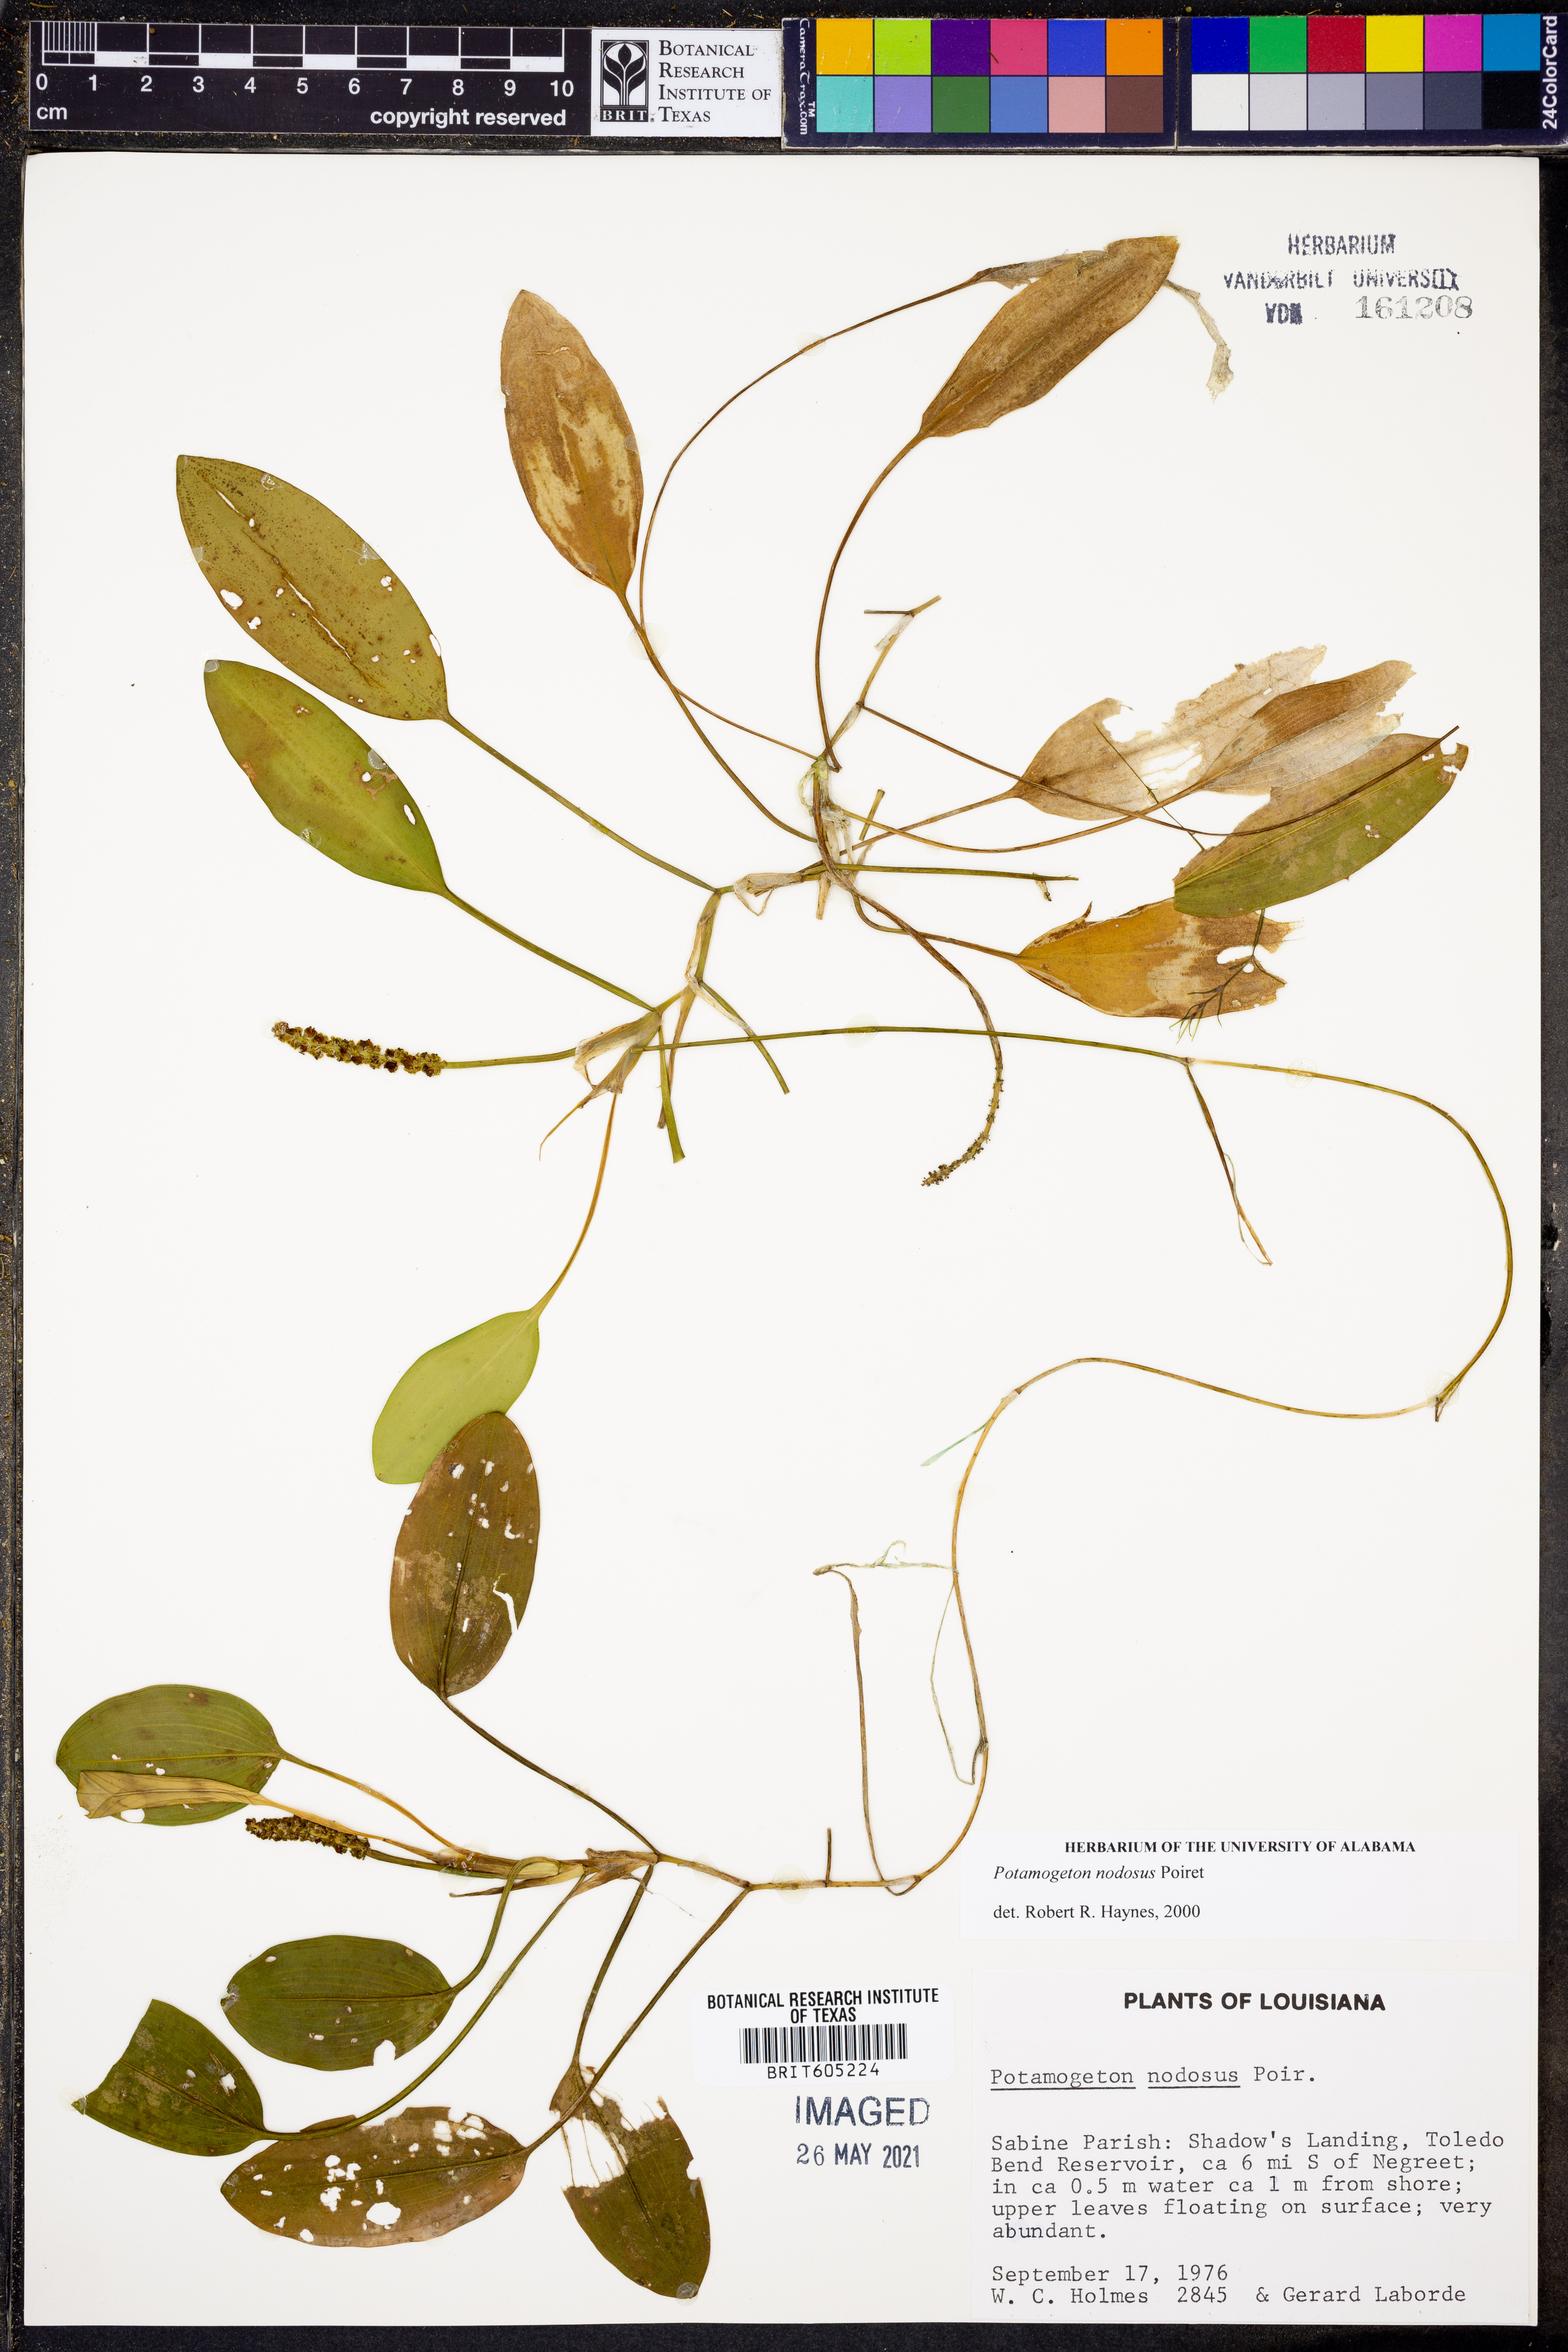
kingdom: Plantae
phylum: Tracheophyta
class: Liliopsida
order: Alismatales
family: Potamogetonaceae
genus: Potamogeton
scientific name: Potamogeton nodosus
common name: Loddon pondweed
